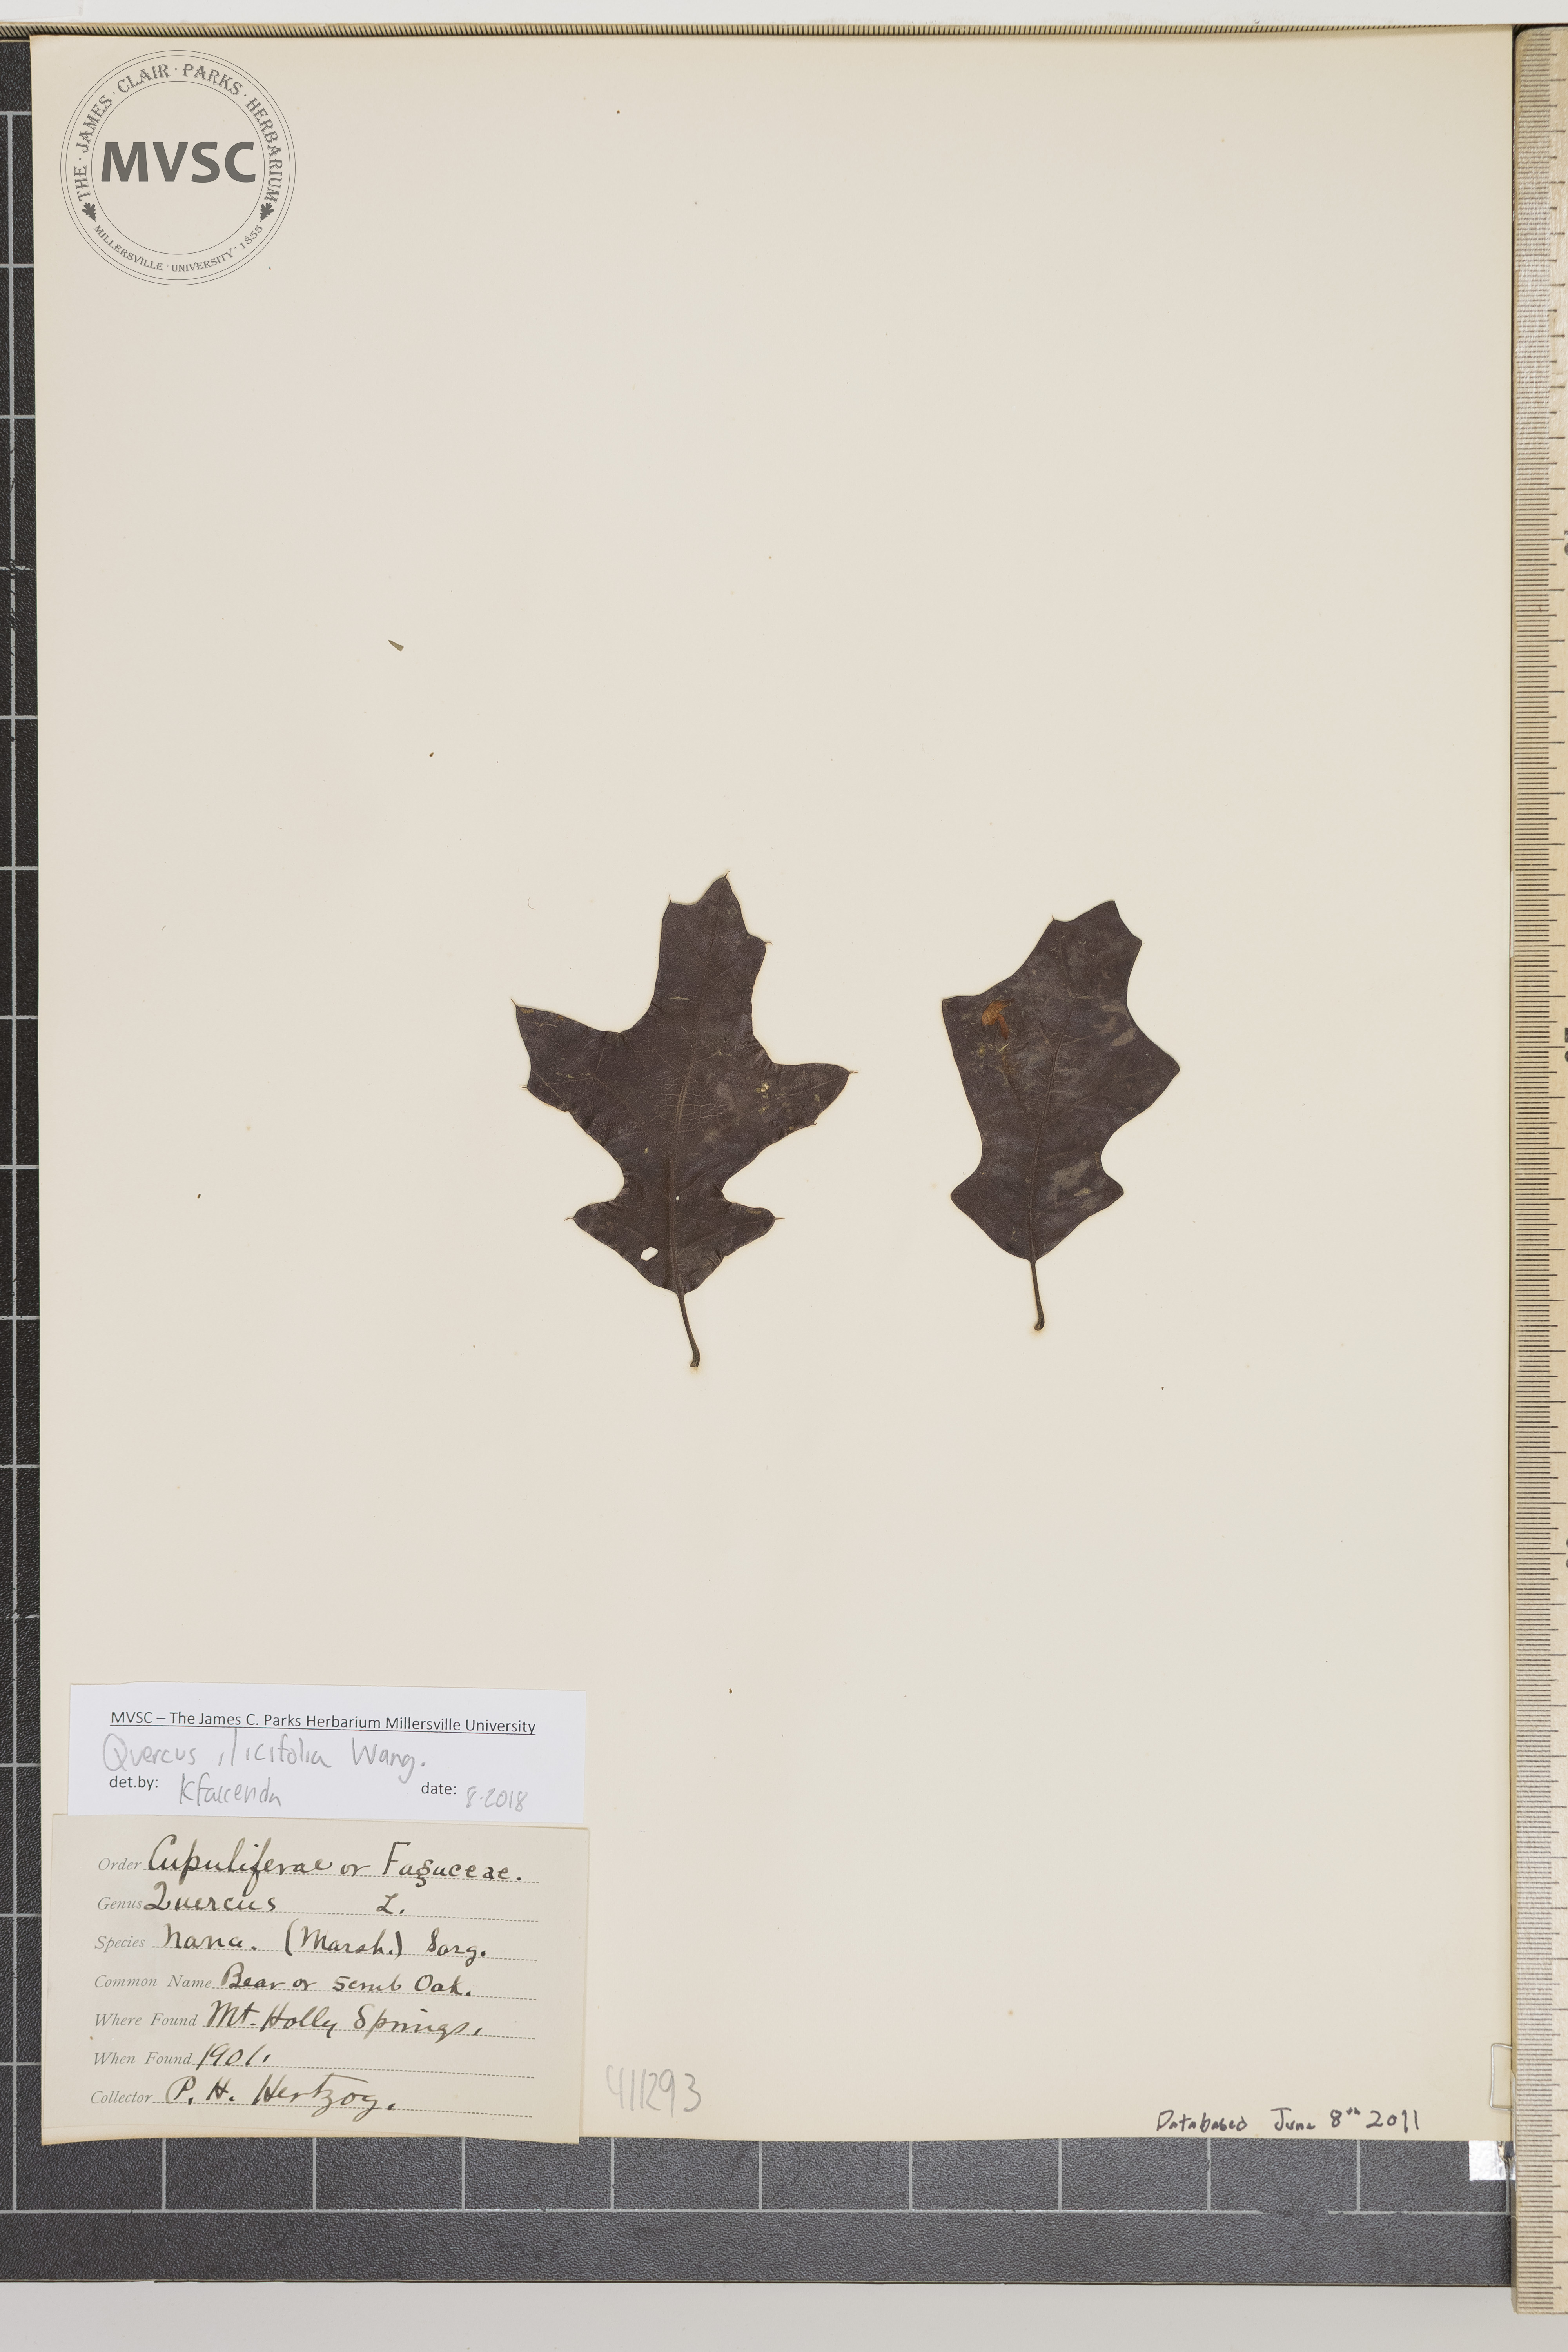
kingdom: Plantae
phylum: Tracheophyta
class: Magnoliopsida
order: Fagales
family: Fagaceae
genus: Quercus
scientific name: Quercus ilicifolia
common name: Bear oak
